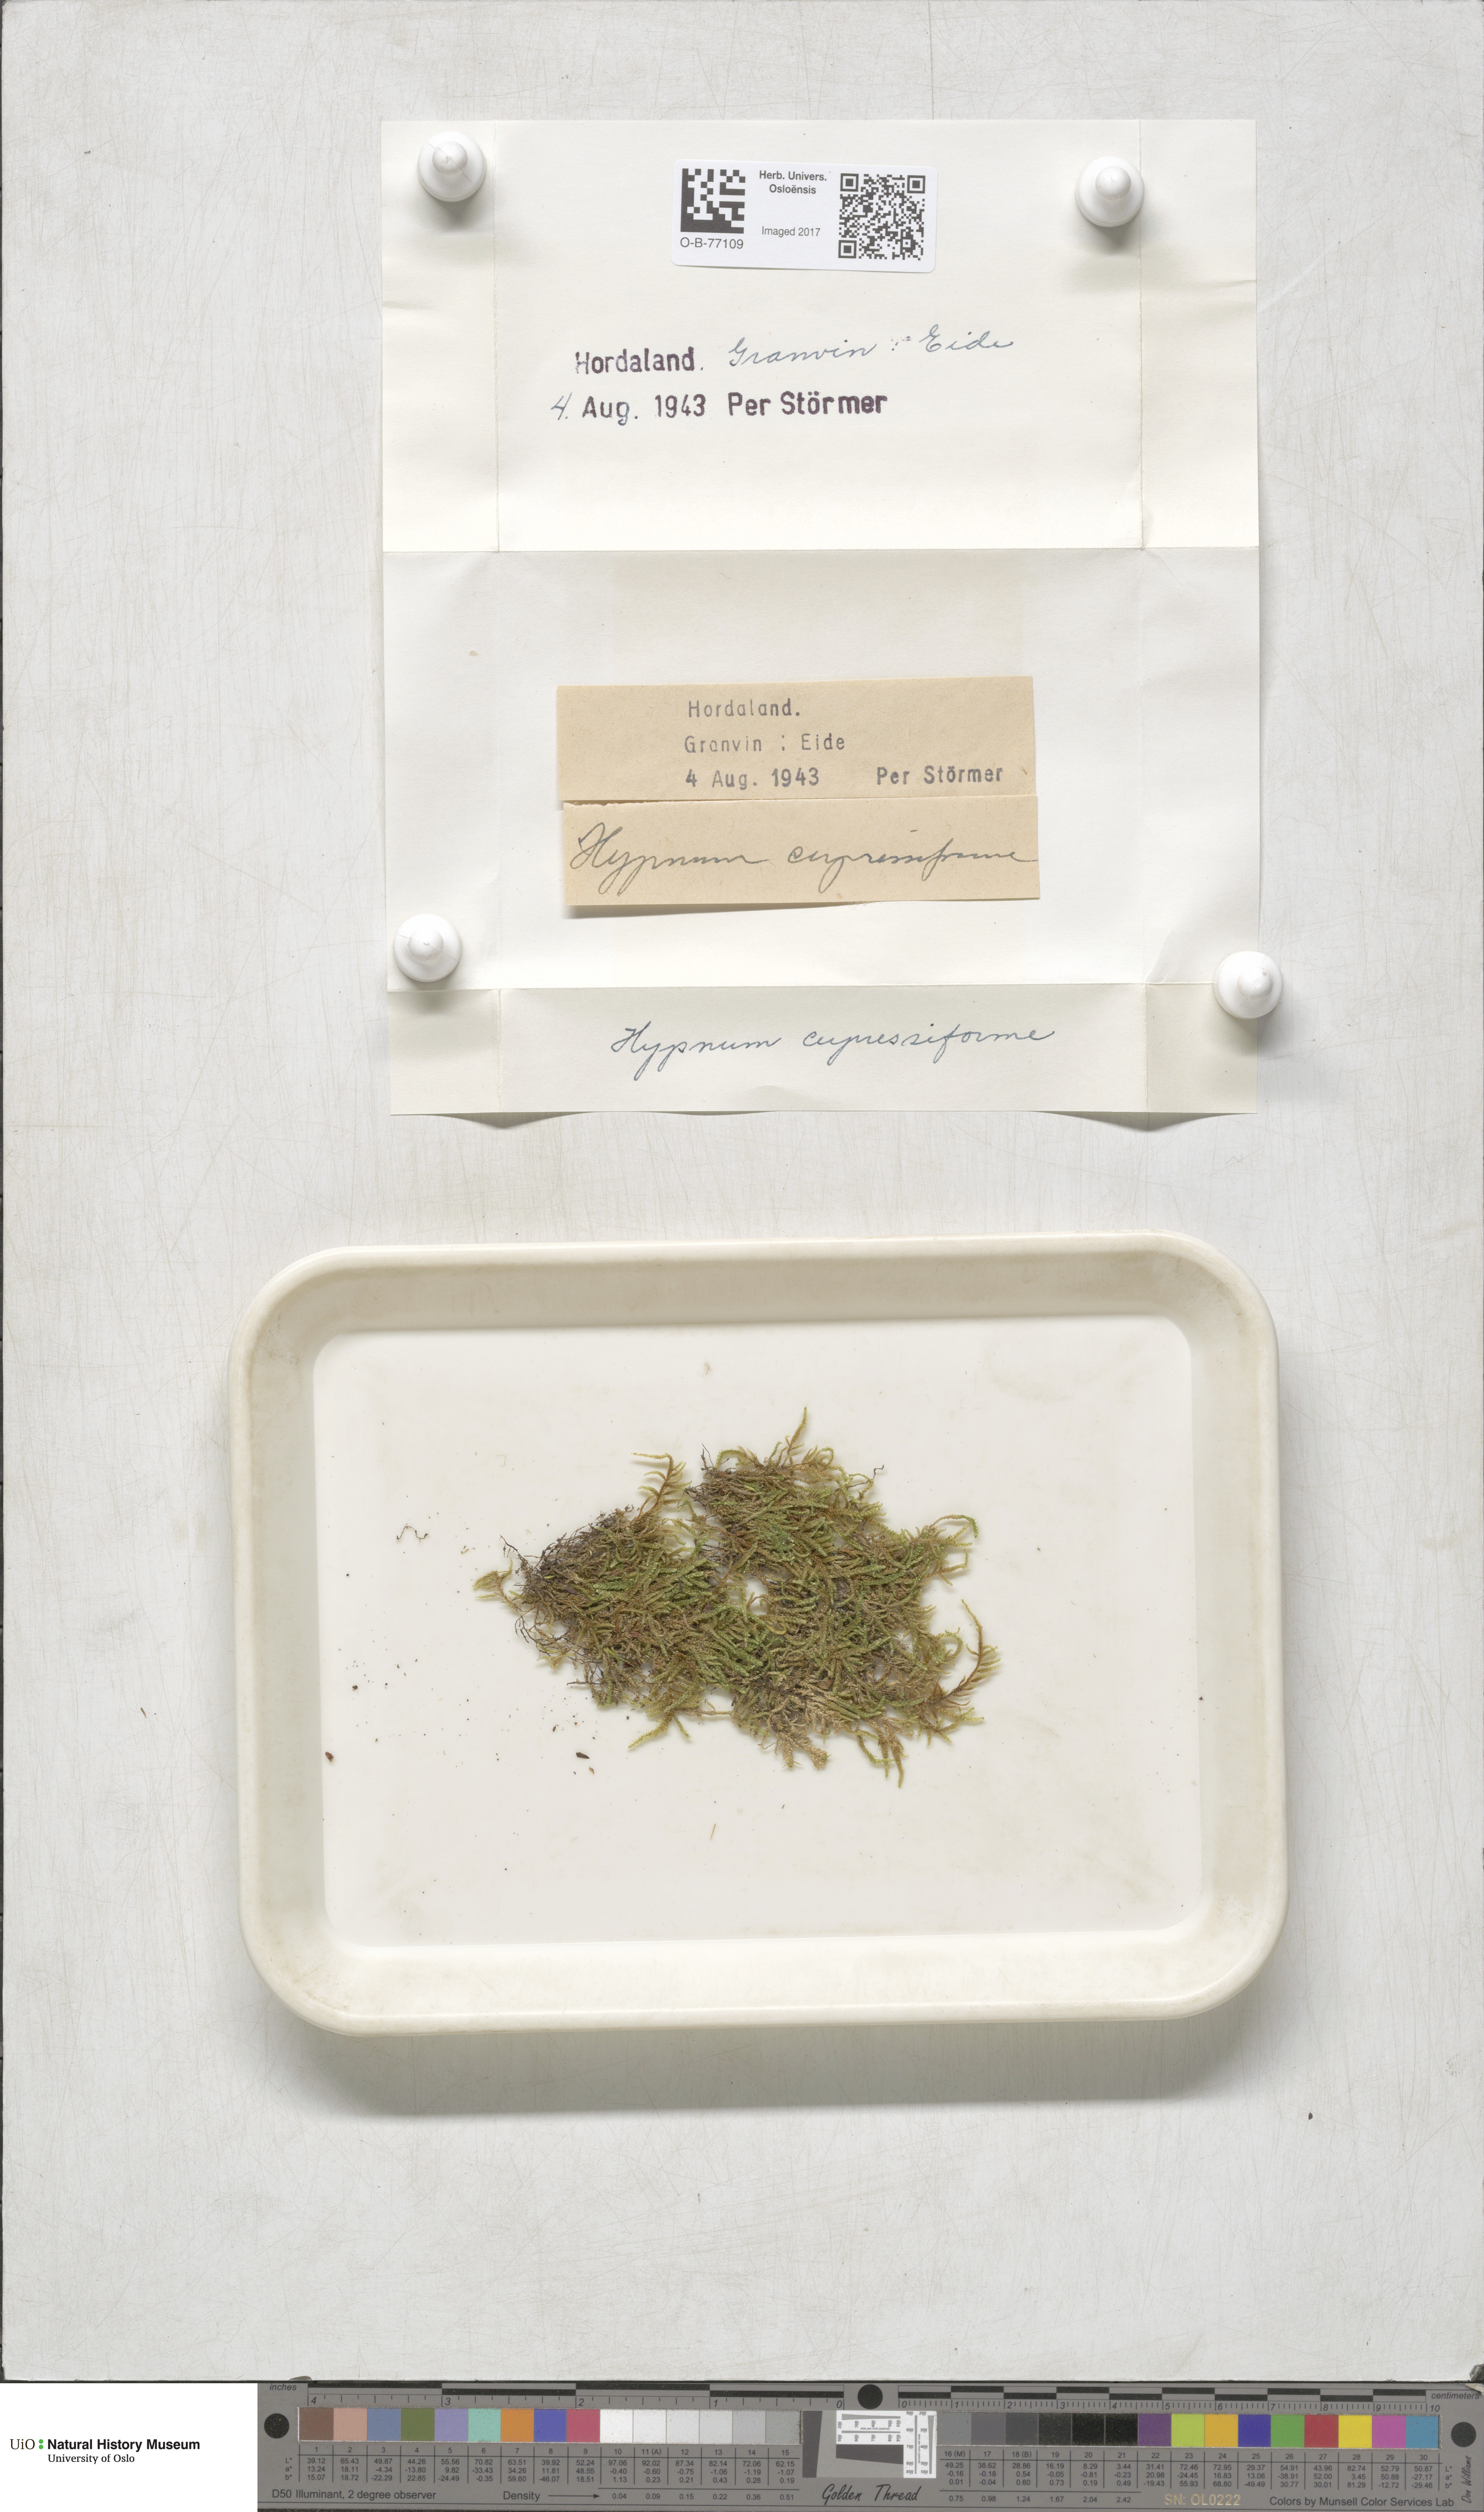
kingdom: Plantae
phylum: Bryophyta
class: Bryopsida
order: Hypnales
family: Hypnaceae
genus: Hypnum
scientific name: Hypnum cupressiforme
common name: Cypress-leaved plait-moss
